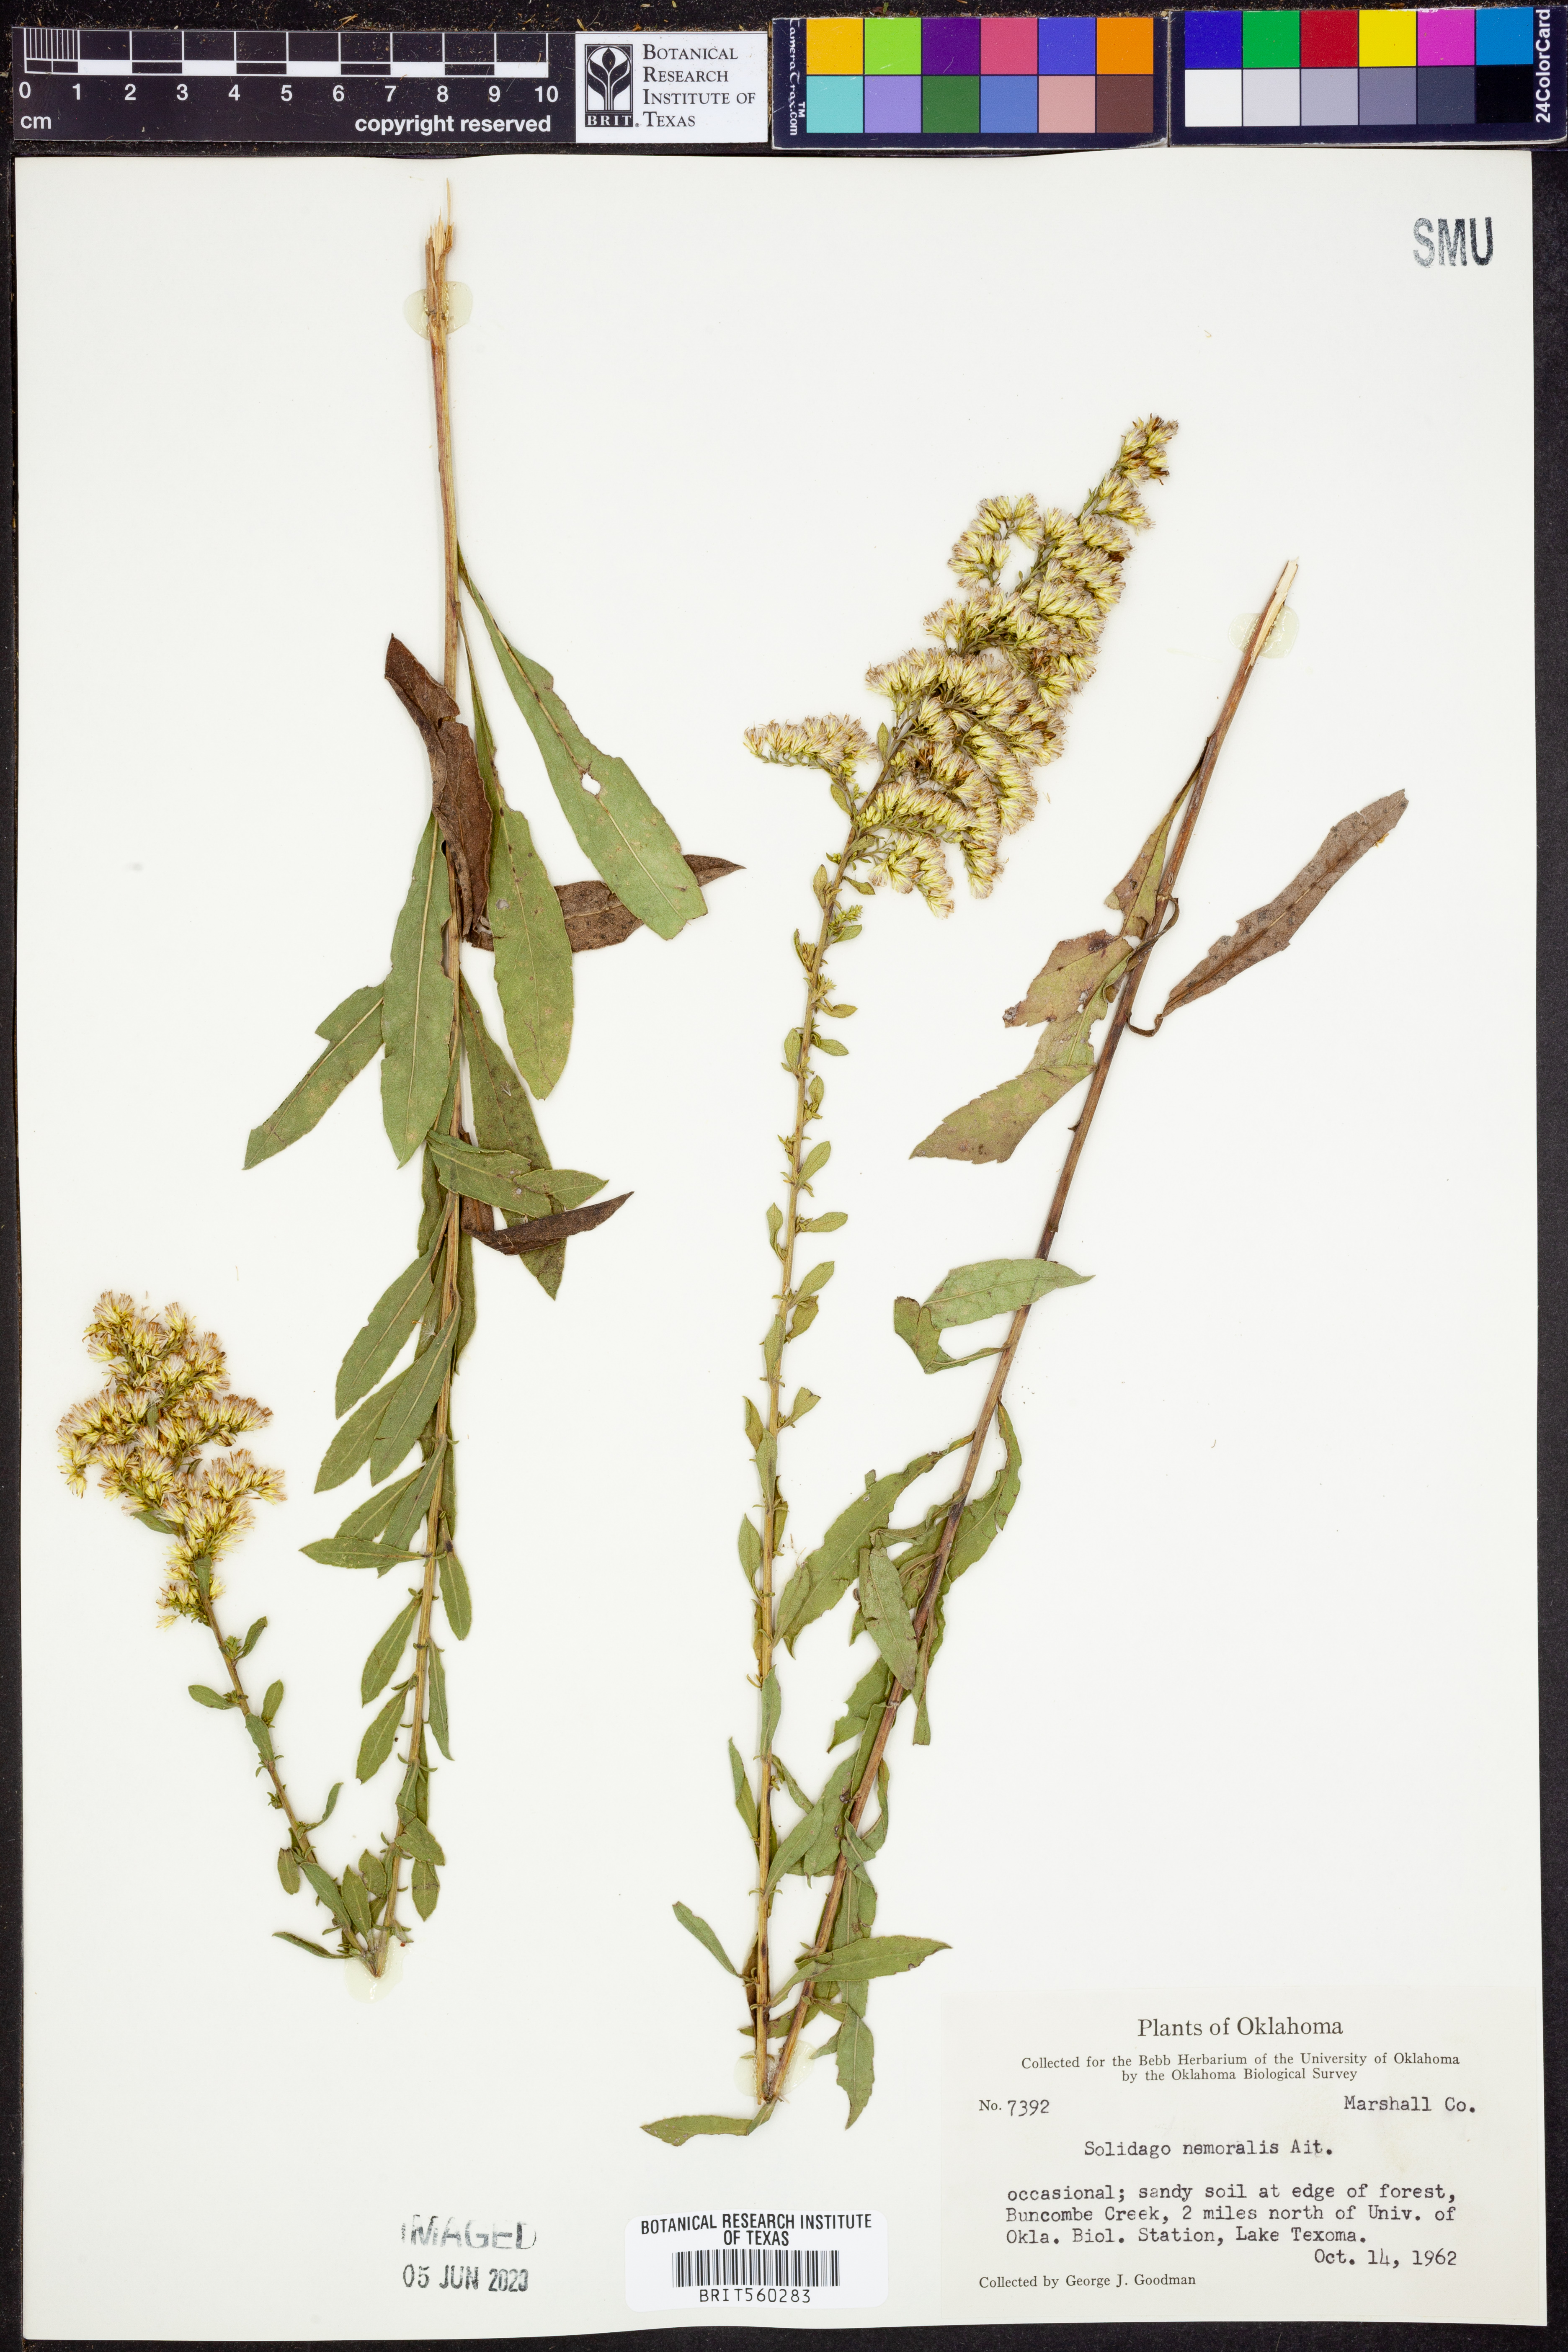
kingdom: Plantae
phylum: Tracheophyta
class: Magnoliopsida
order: Asterales
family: Asteraceae
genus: Solidago
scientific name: Solidago nemoralis
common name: Grey goldenrod
